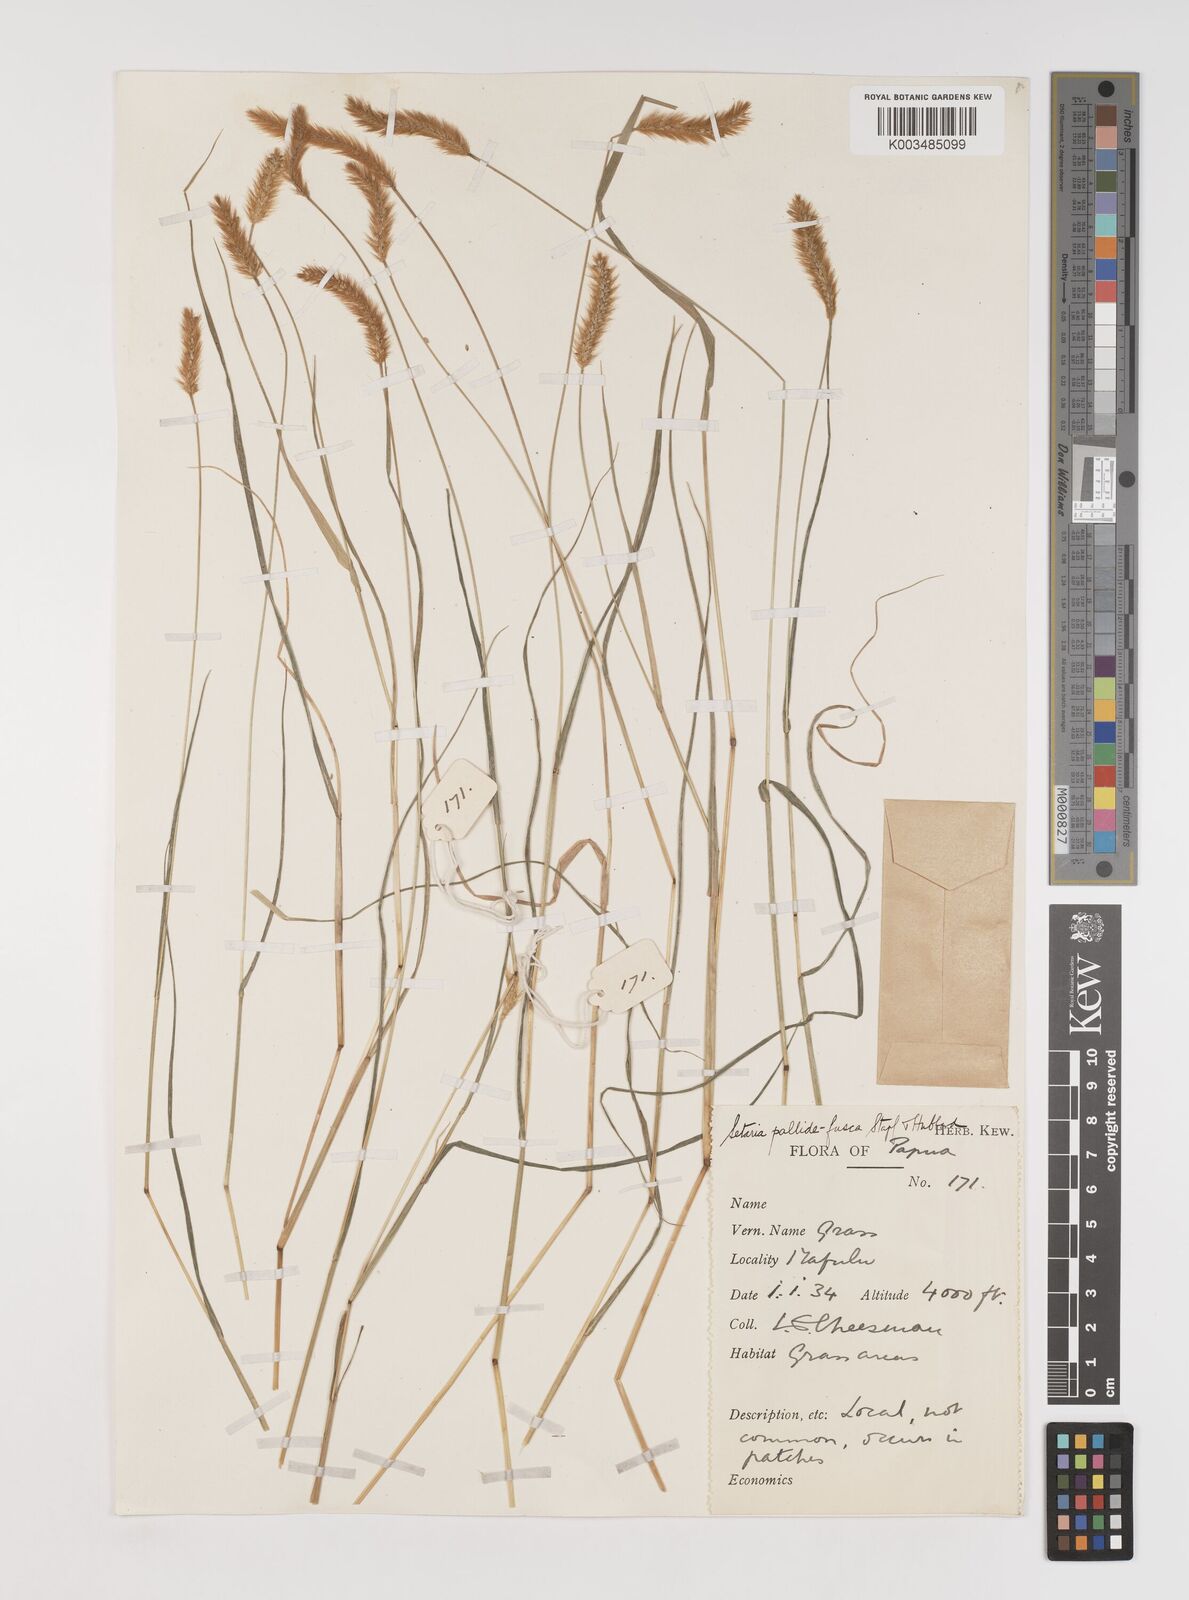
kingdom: Plantae
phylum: Tracheophyta
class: Liliopsida
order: Poales
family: Poaceae
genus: Setaria
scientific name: Setaria pumila
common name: Yellow bristle-grass
